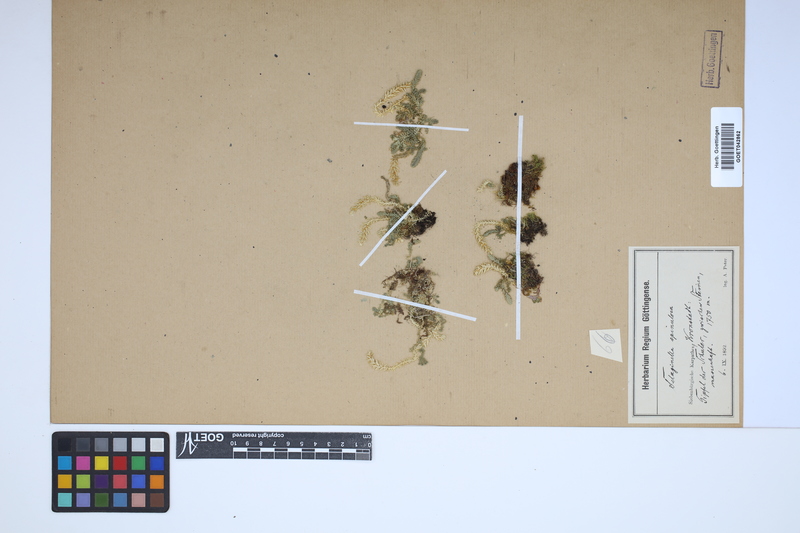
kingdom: Plantae
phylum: Tracheophyta
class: Lycopodiopsida
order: Selaginellales
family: Selaginellaceae
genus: Selaginella
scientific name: Selaginella selaginoides
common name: Prickly mountain-moss
